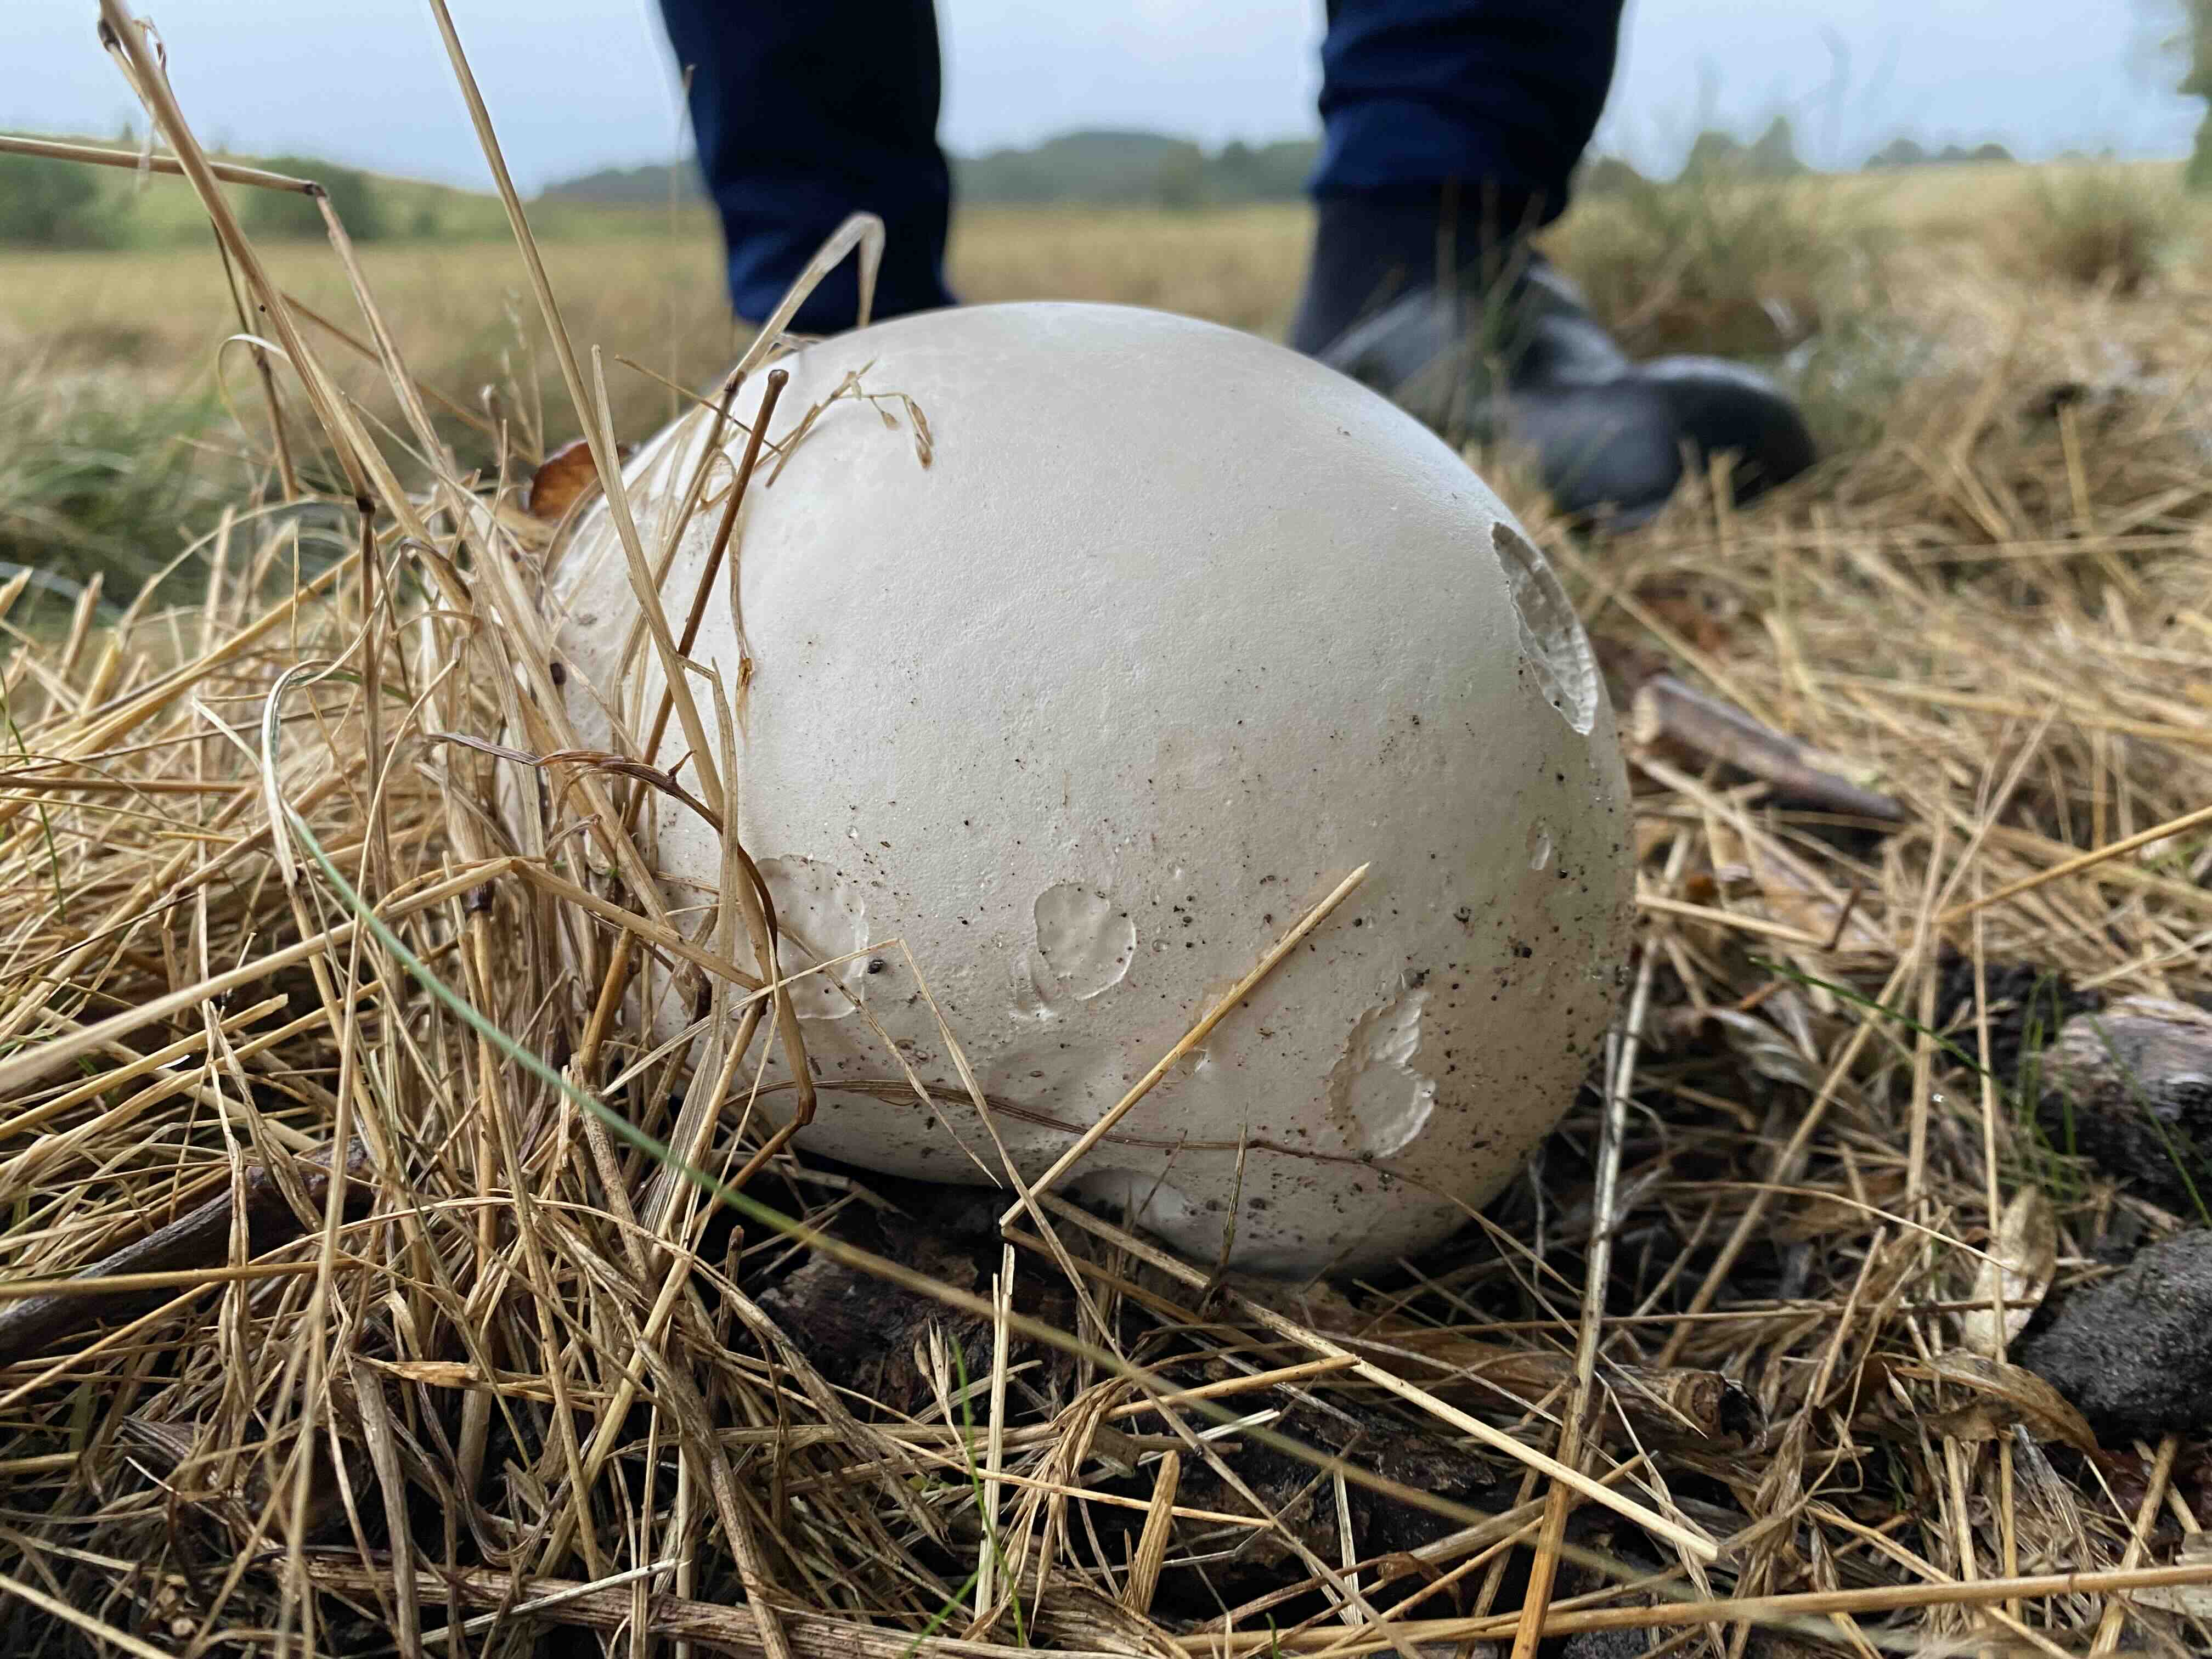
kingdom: Fungi
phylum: Basidiomycota
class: Agaricomycetes
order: Agaricales
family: Lycoperdaceae
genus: Calvatia
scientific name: Calvatia gigantea
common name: kæmpestøvbold
